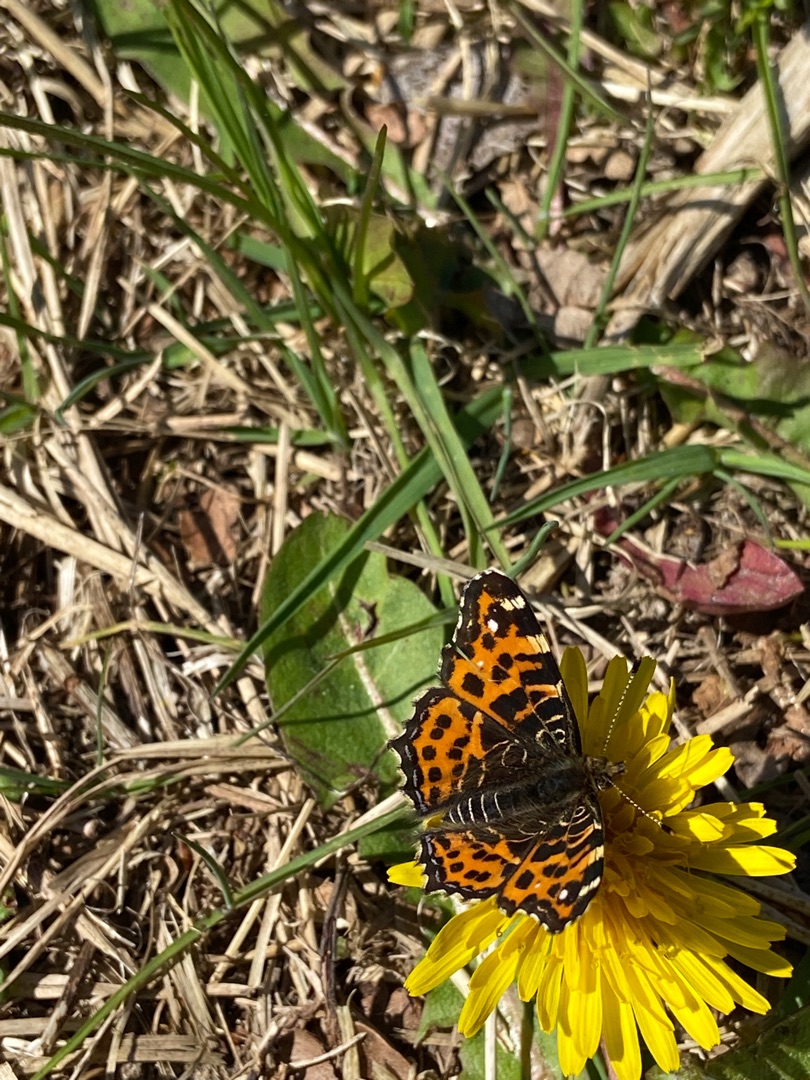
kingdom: Animalia
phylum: Arthropoda
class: Insecta
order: Lepidoptera
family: Nymphalidae
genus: Araschnia
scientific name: Araschnia levana
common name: Nældesommerfugl
